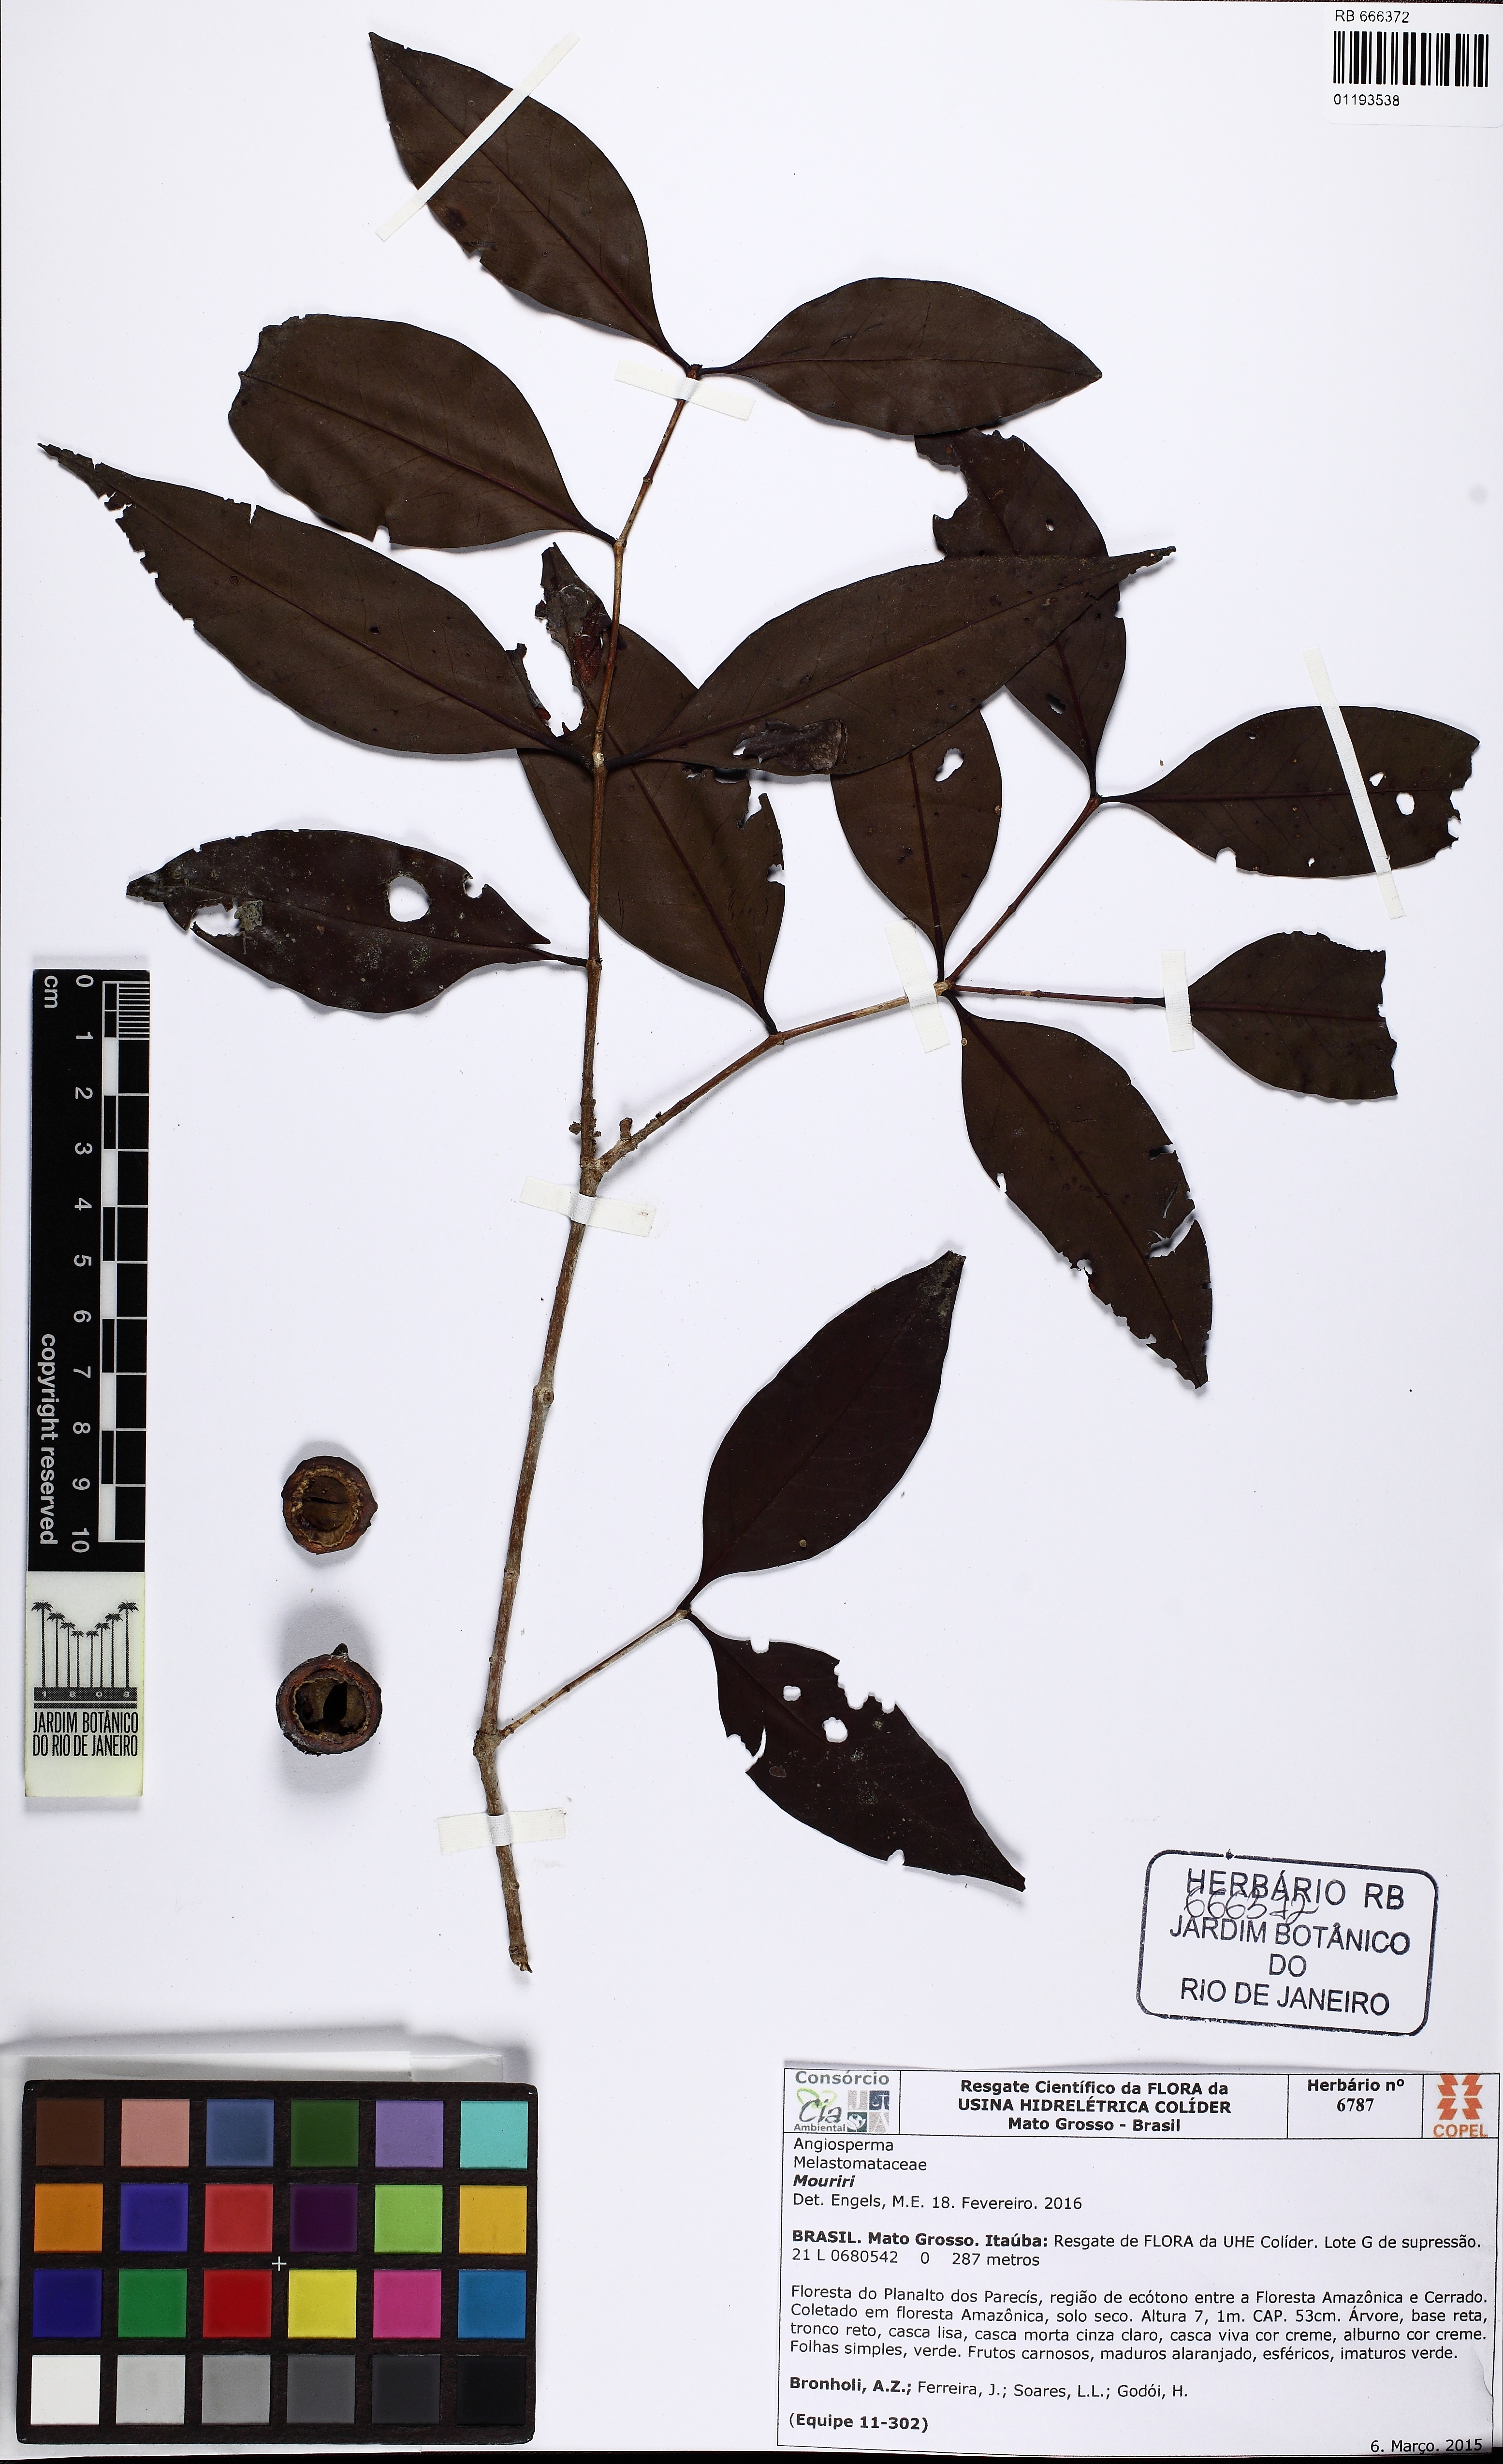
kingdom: Plantae
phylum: Tracheophyta
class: Magnoliopsida
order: Myrtales
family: Melastomataceae
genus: Mouriri
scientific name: Mouriri vernicosa
